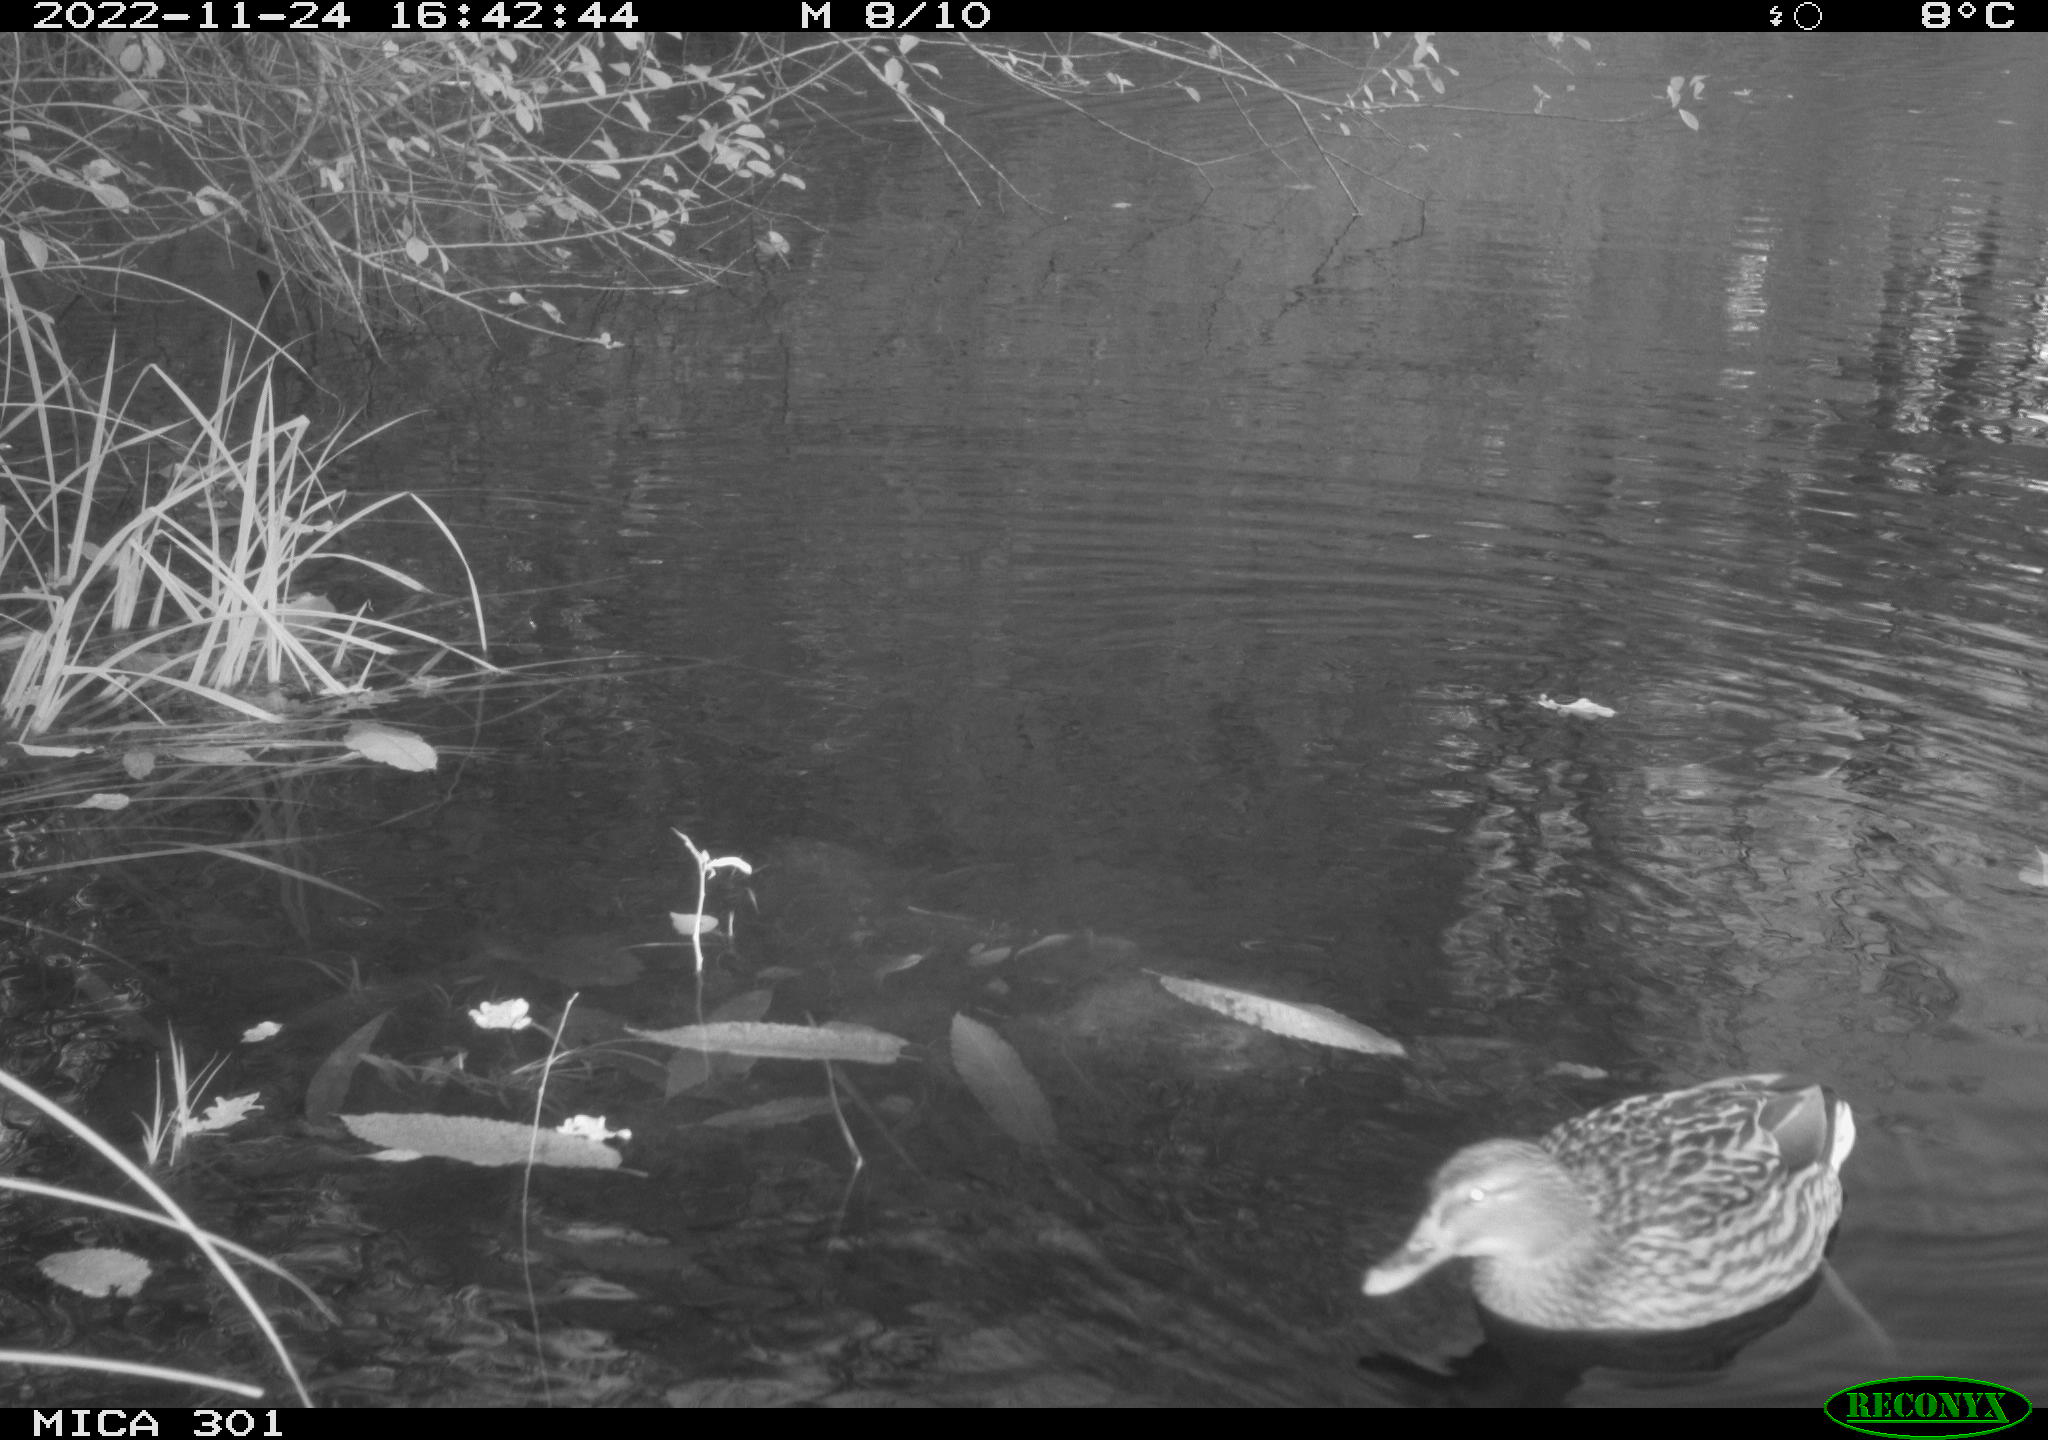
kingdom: Animalia
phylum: Chordata
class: Aves
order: Anseriformes
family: Anatidae
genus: Anas
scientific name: Anas
